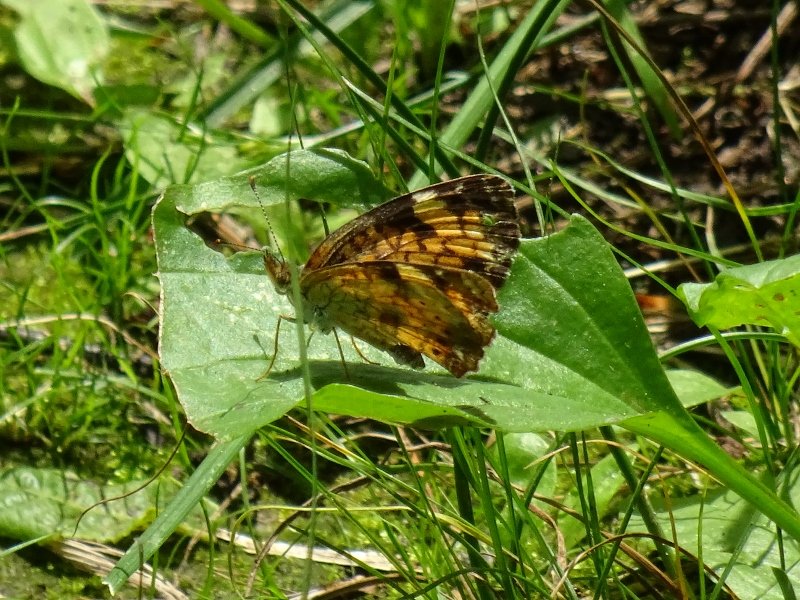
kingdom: Animalia
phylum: Arthropoda
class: Insecta
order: Lepidoptera
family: Nymphalidae
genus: Phyciodes
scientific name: Phyciodes tharos
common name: Northern Crescent
